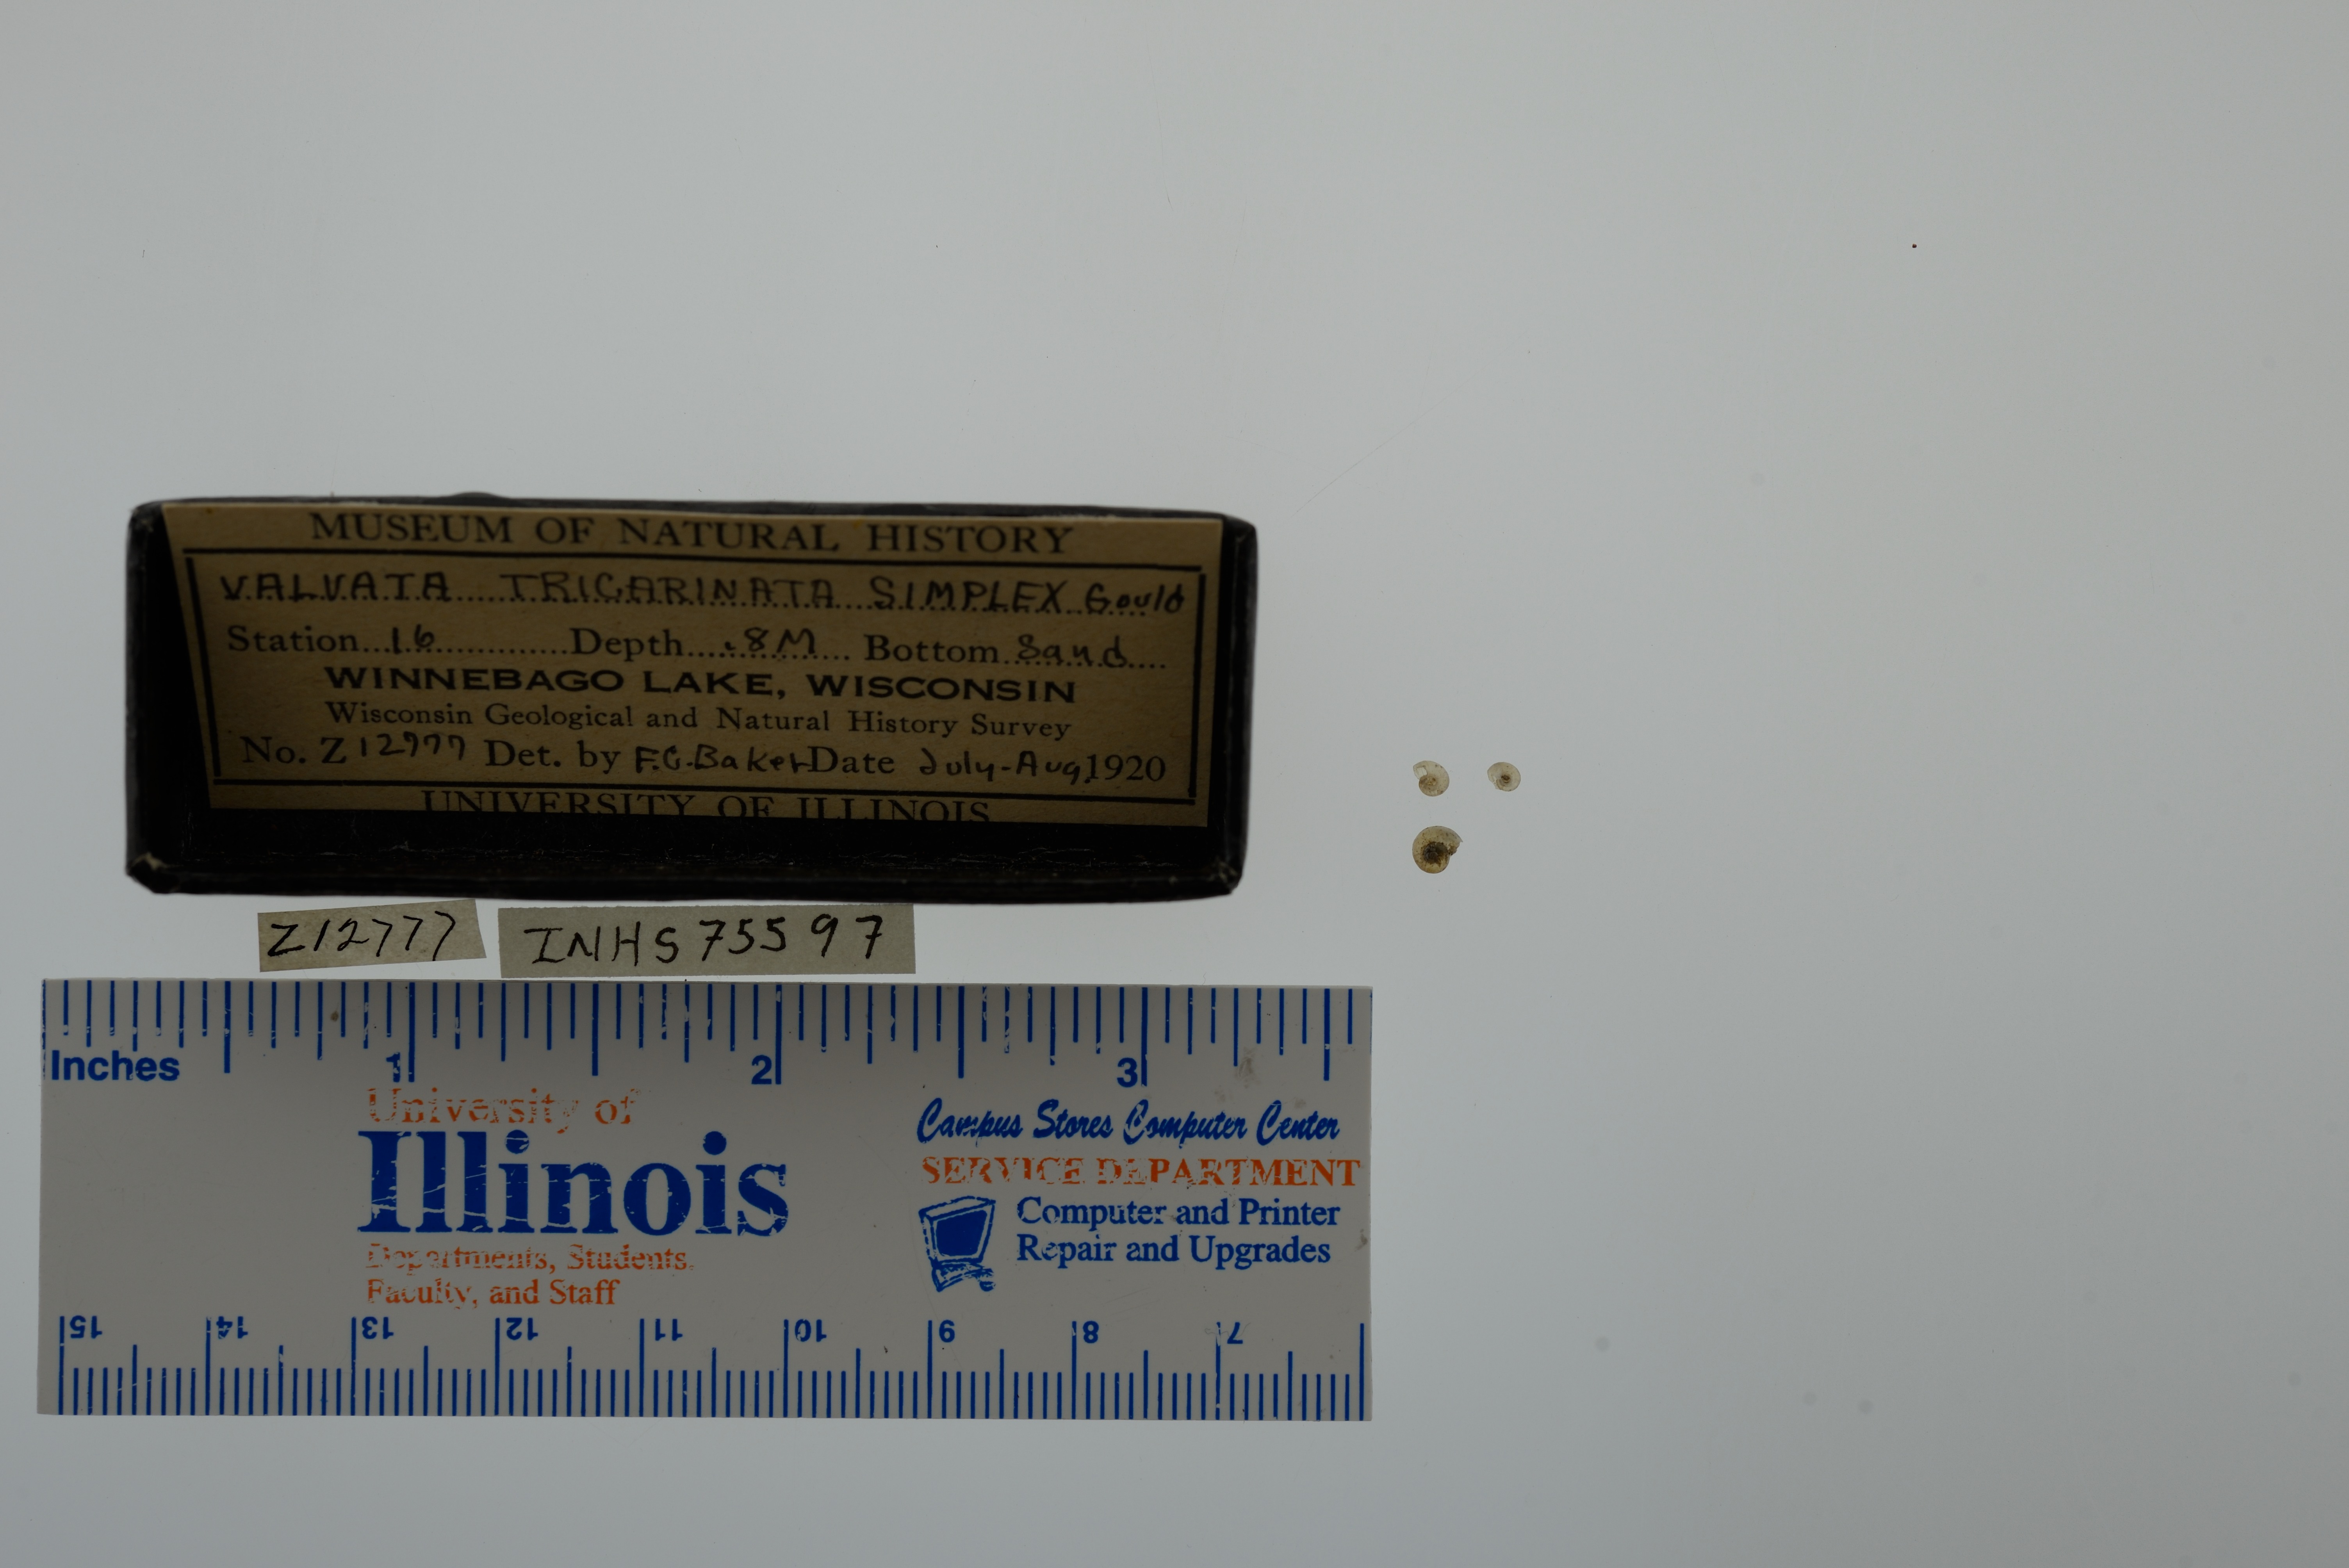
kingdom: Animalia
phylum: Mollusca
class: Gastropoda
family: Valvatidae
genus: Valvata
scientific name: Valvata tricarinata
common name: Three-ridge valvata
